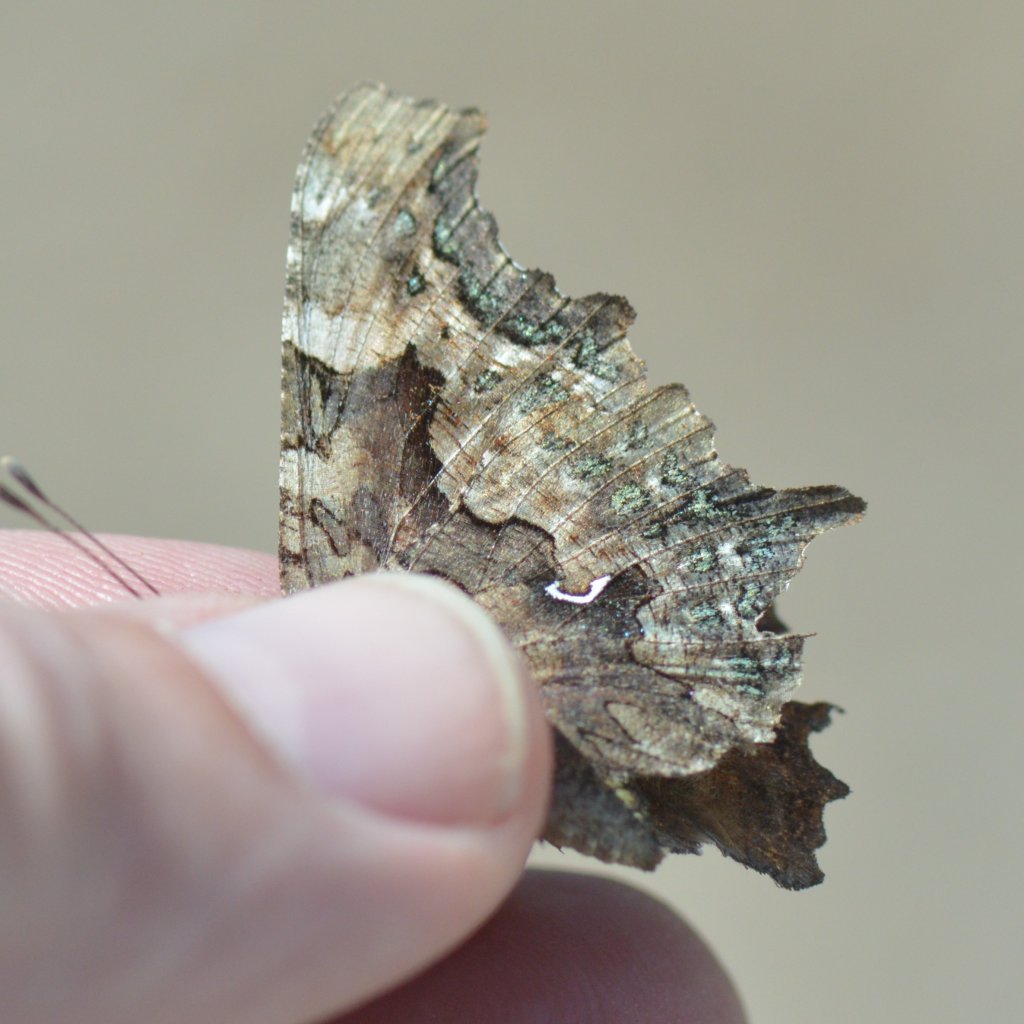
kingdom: Animalia
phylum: Arthropoda
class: Insecta
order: Lepidoptera
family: Nymphalidae
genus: Polygonia
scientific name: Polygonia faunus
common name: Green Comma
